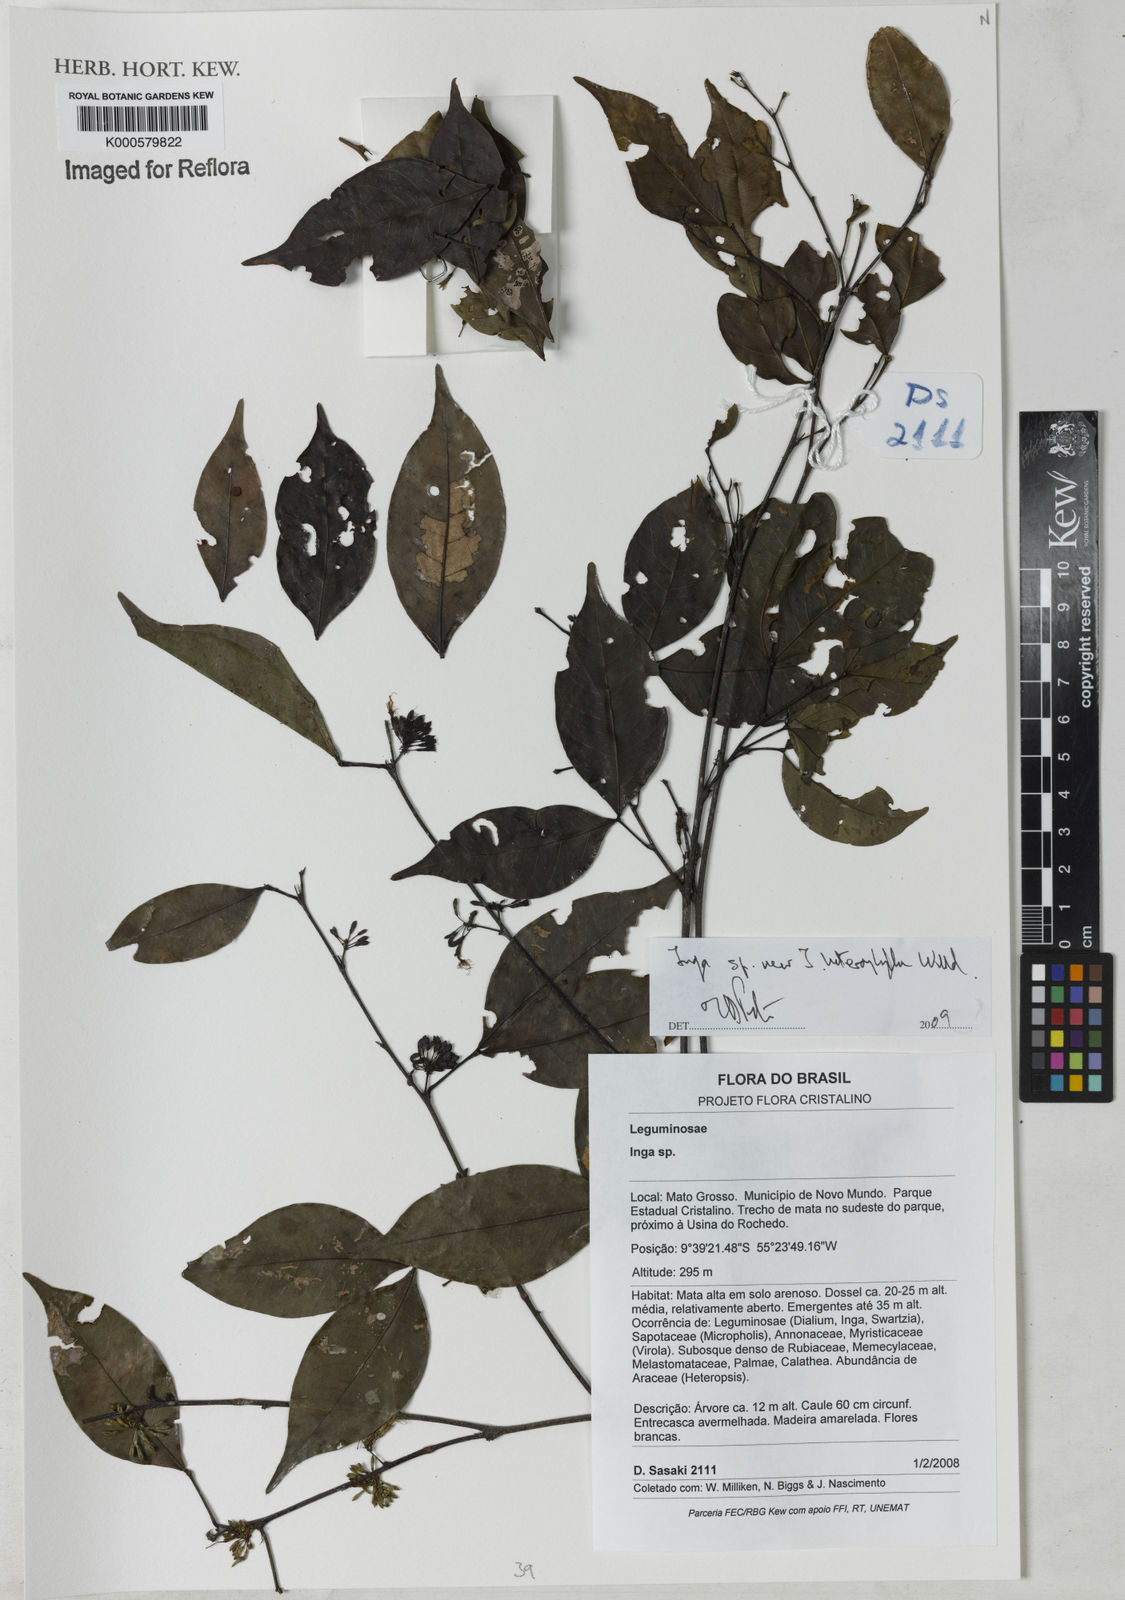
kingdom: Plantae
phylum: Tracheophyta
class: Magnoliopsida
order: Fabales
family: Fabaceae
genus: Inga
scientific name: Inga heterophylla
